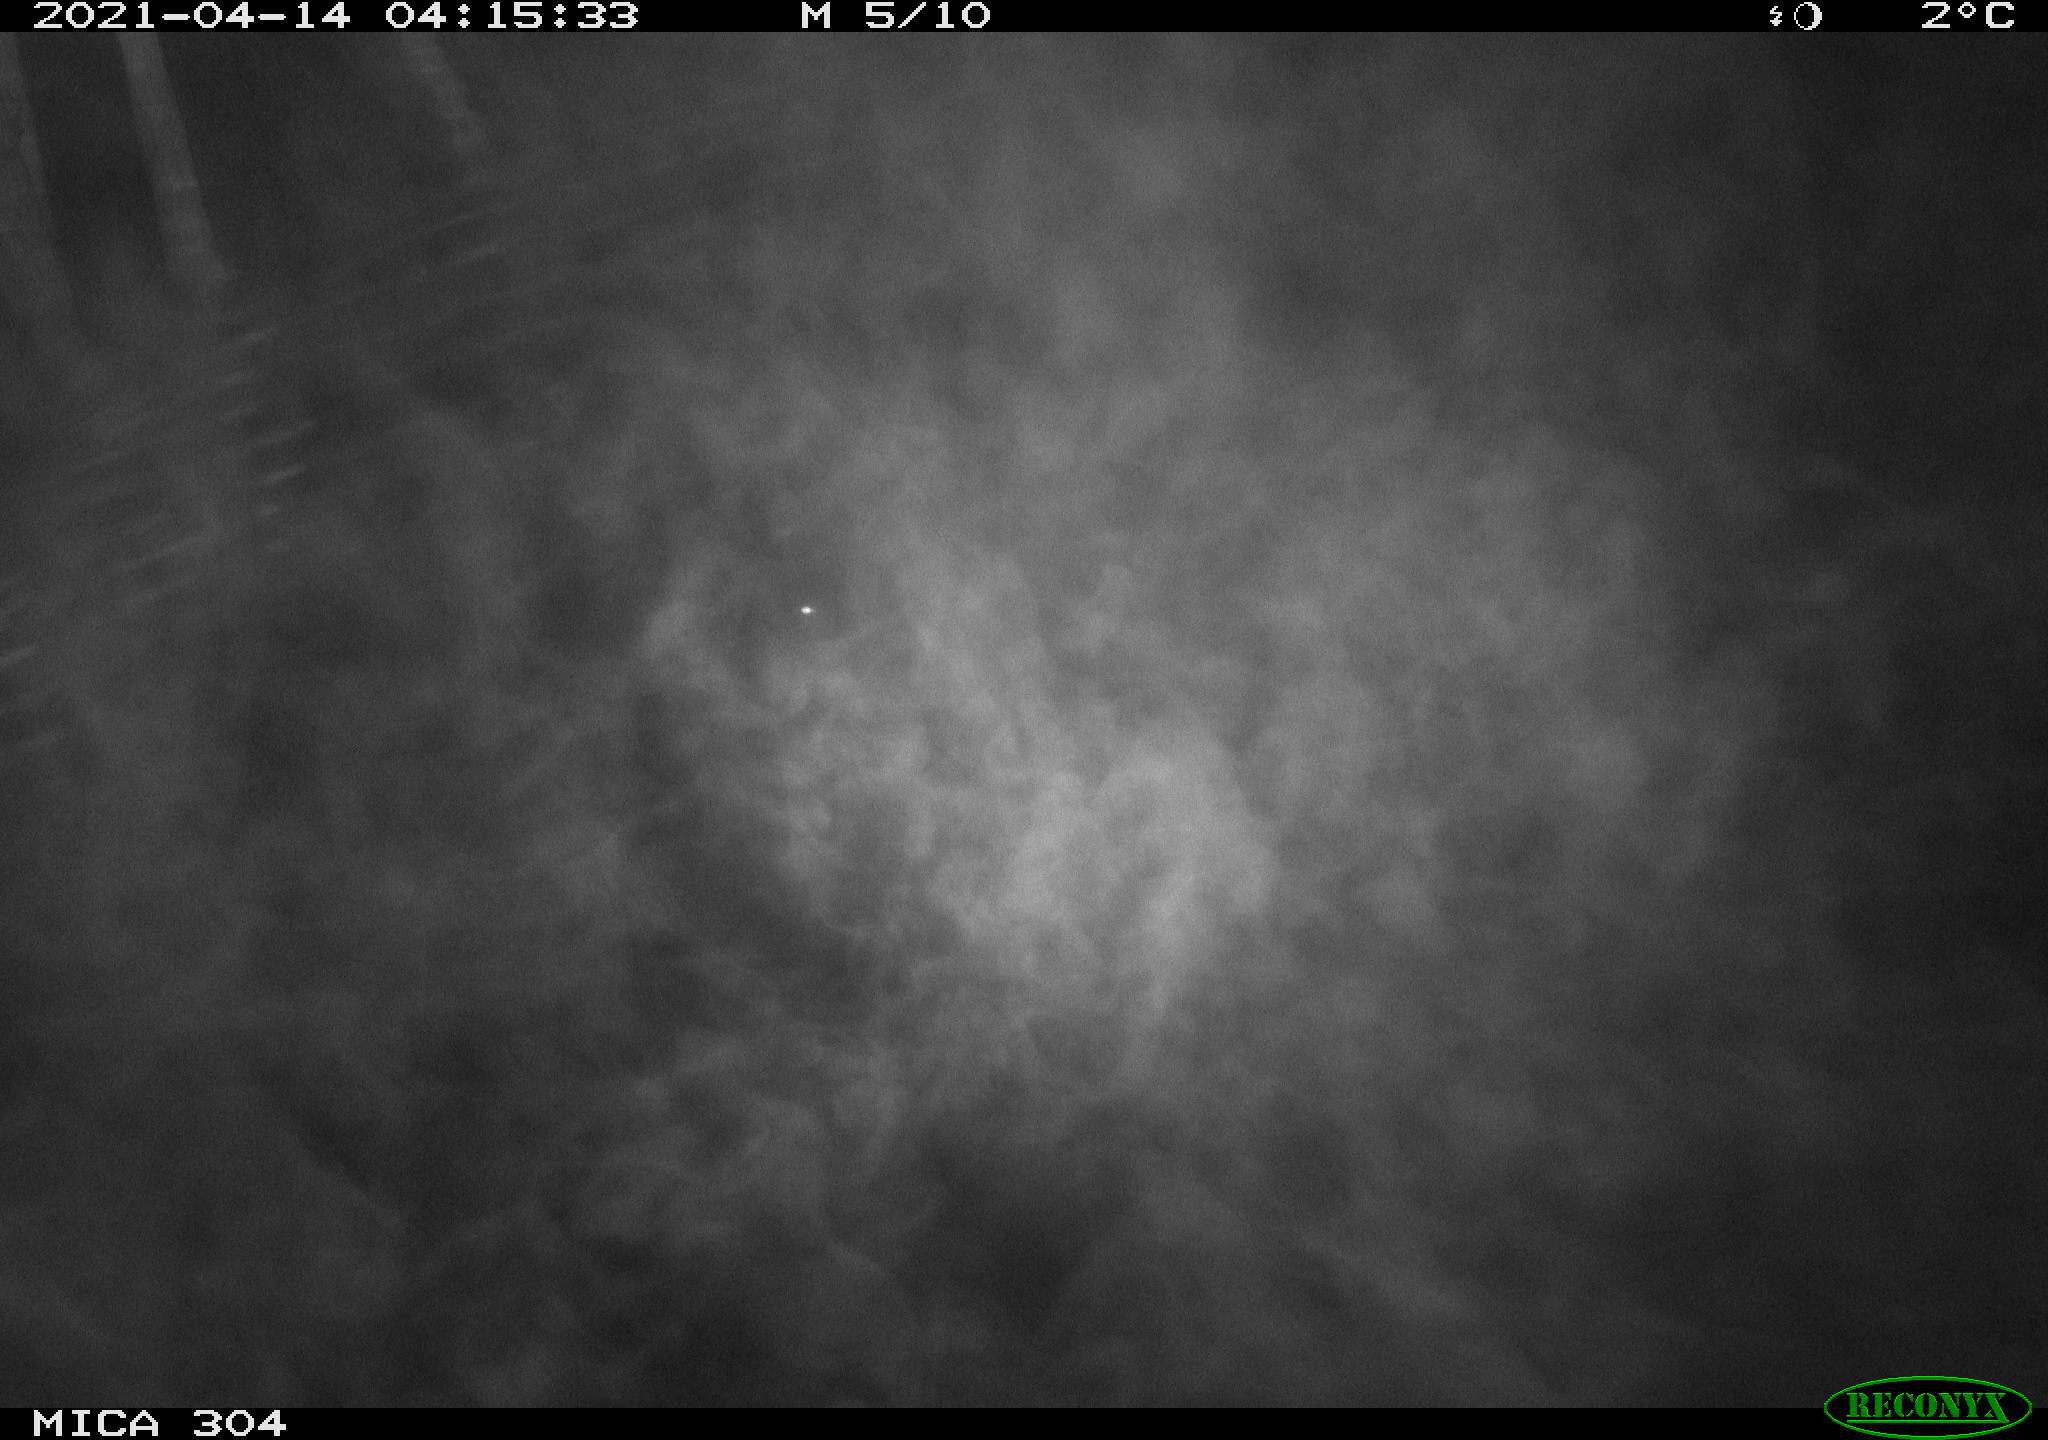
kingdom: Animalia
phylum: Chordata
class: Aves
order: Anseriformes
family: Anatidae
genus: Anas
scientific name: Anas
